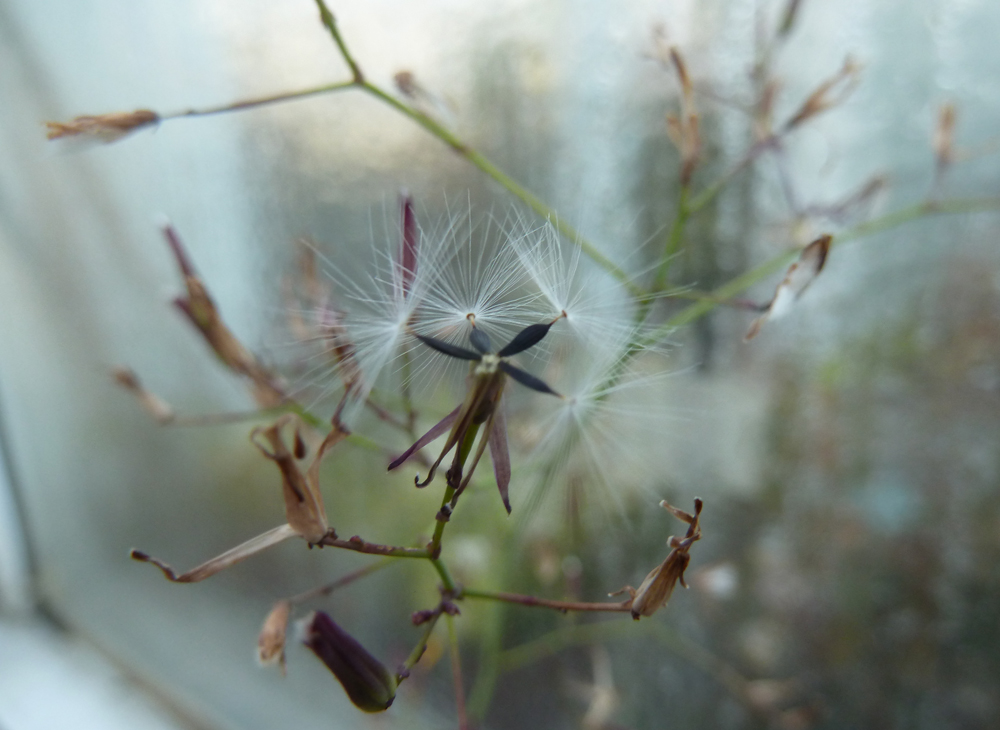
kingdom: Plantae
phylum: Tracheophyta
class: Magnoliopsida
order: Asterales
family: Asteraceae
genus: Mycelis
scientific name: Mycelis muralis
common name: Wall lettuce
